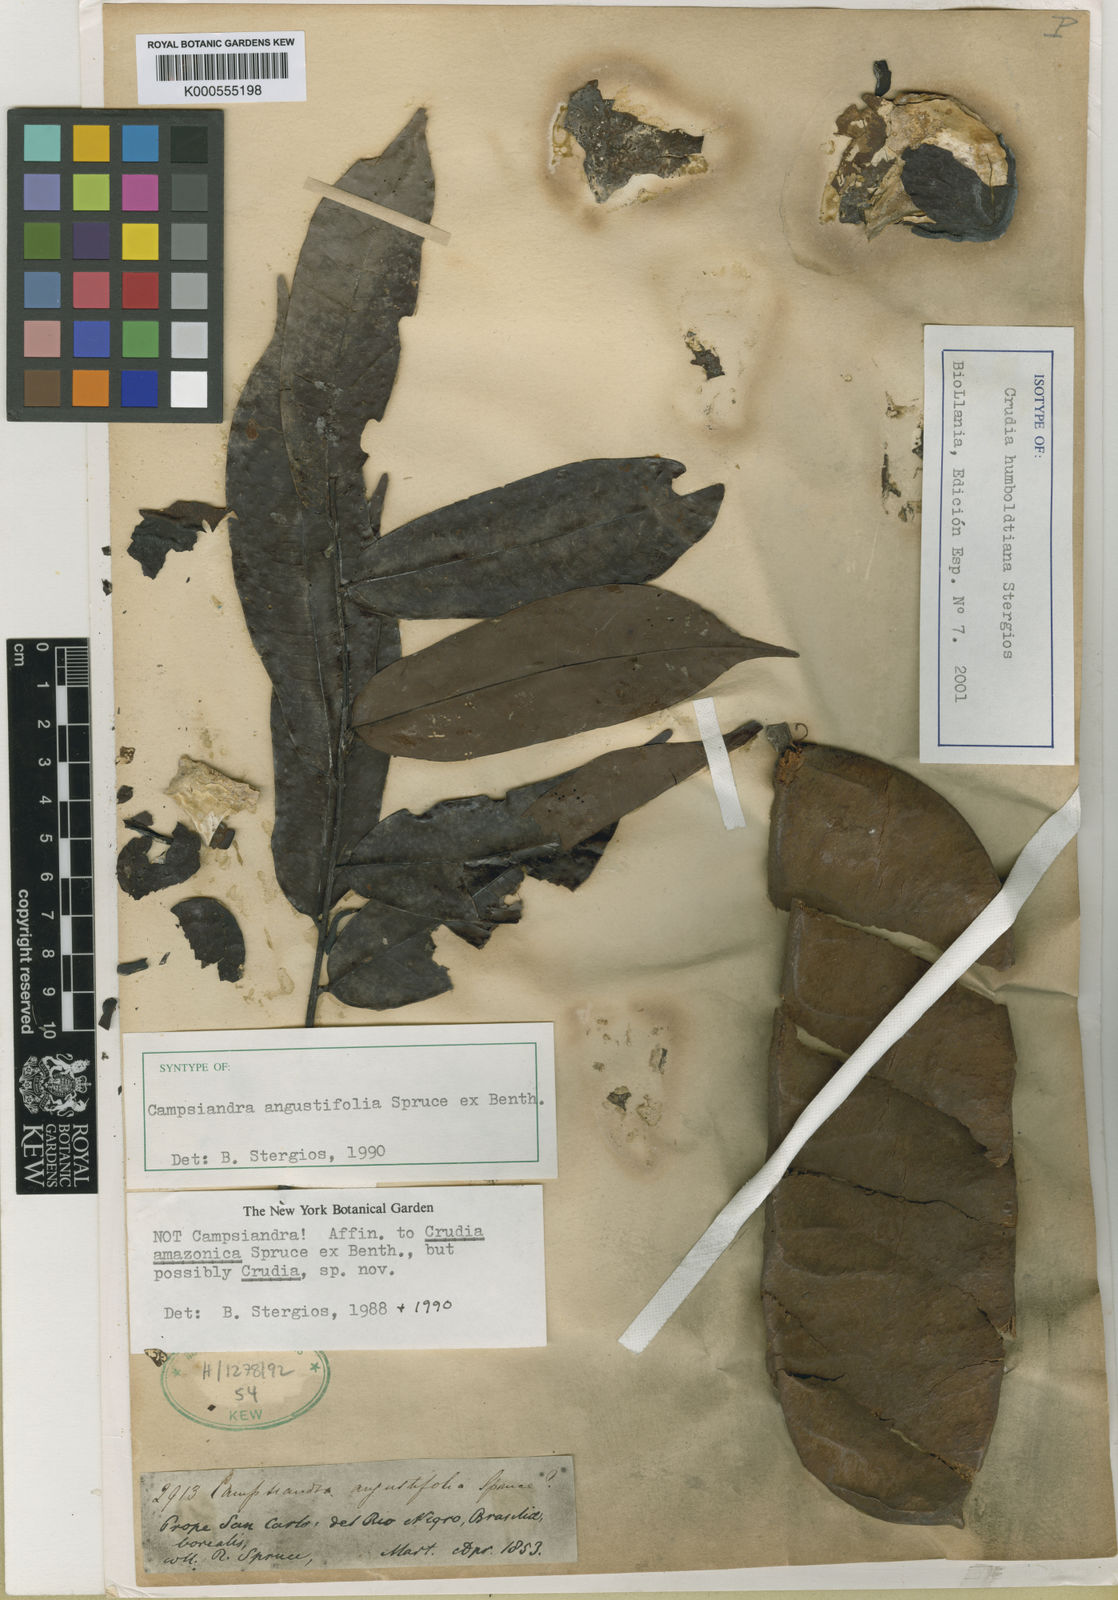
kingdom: Plantae
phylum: Tracheophyta
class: Magnoliopsida
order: Fabales
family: Fabaceae
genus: Crudia
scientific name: Crudia humboldtiana
